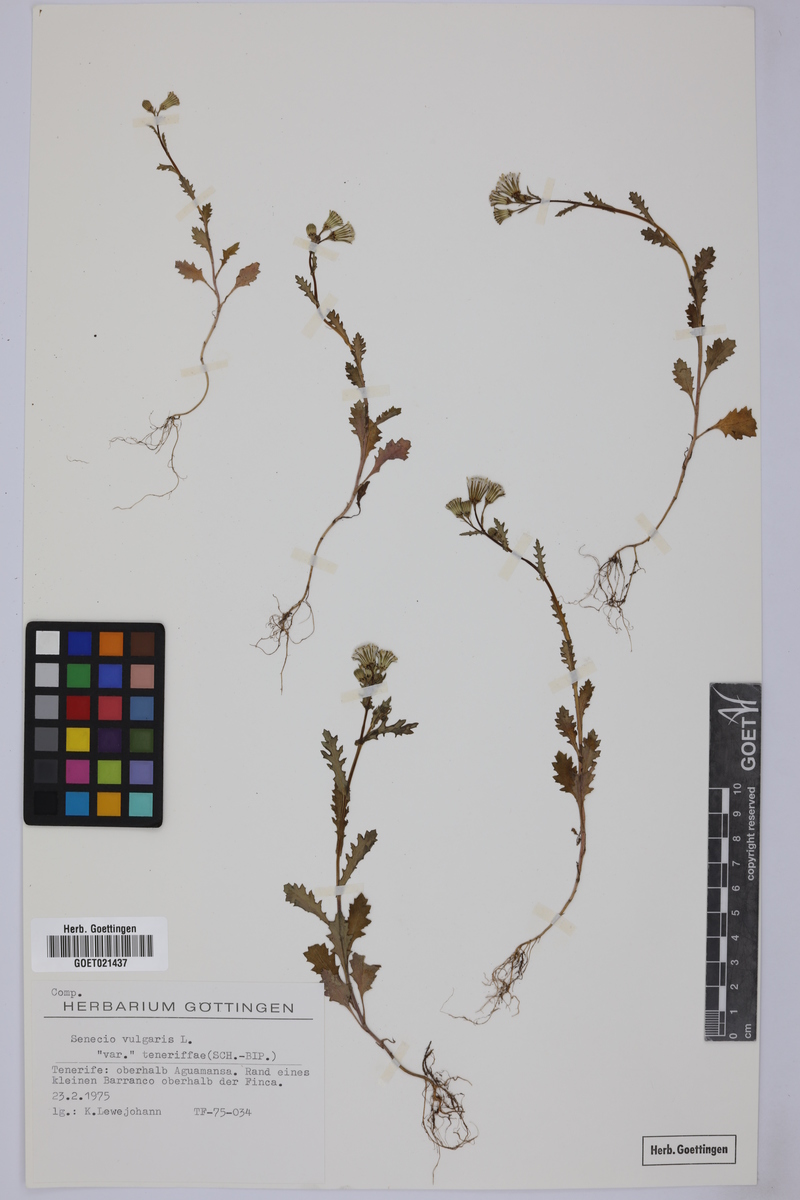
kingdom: Plantae
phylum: Tracheophyta
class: Magnoliopsida
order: Asterales
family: Asteraceae
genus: Senecio
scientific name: Senecio teneriffae
